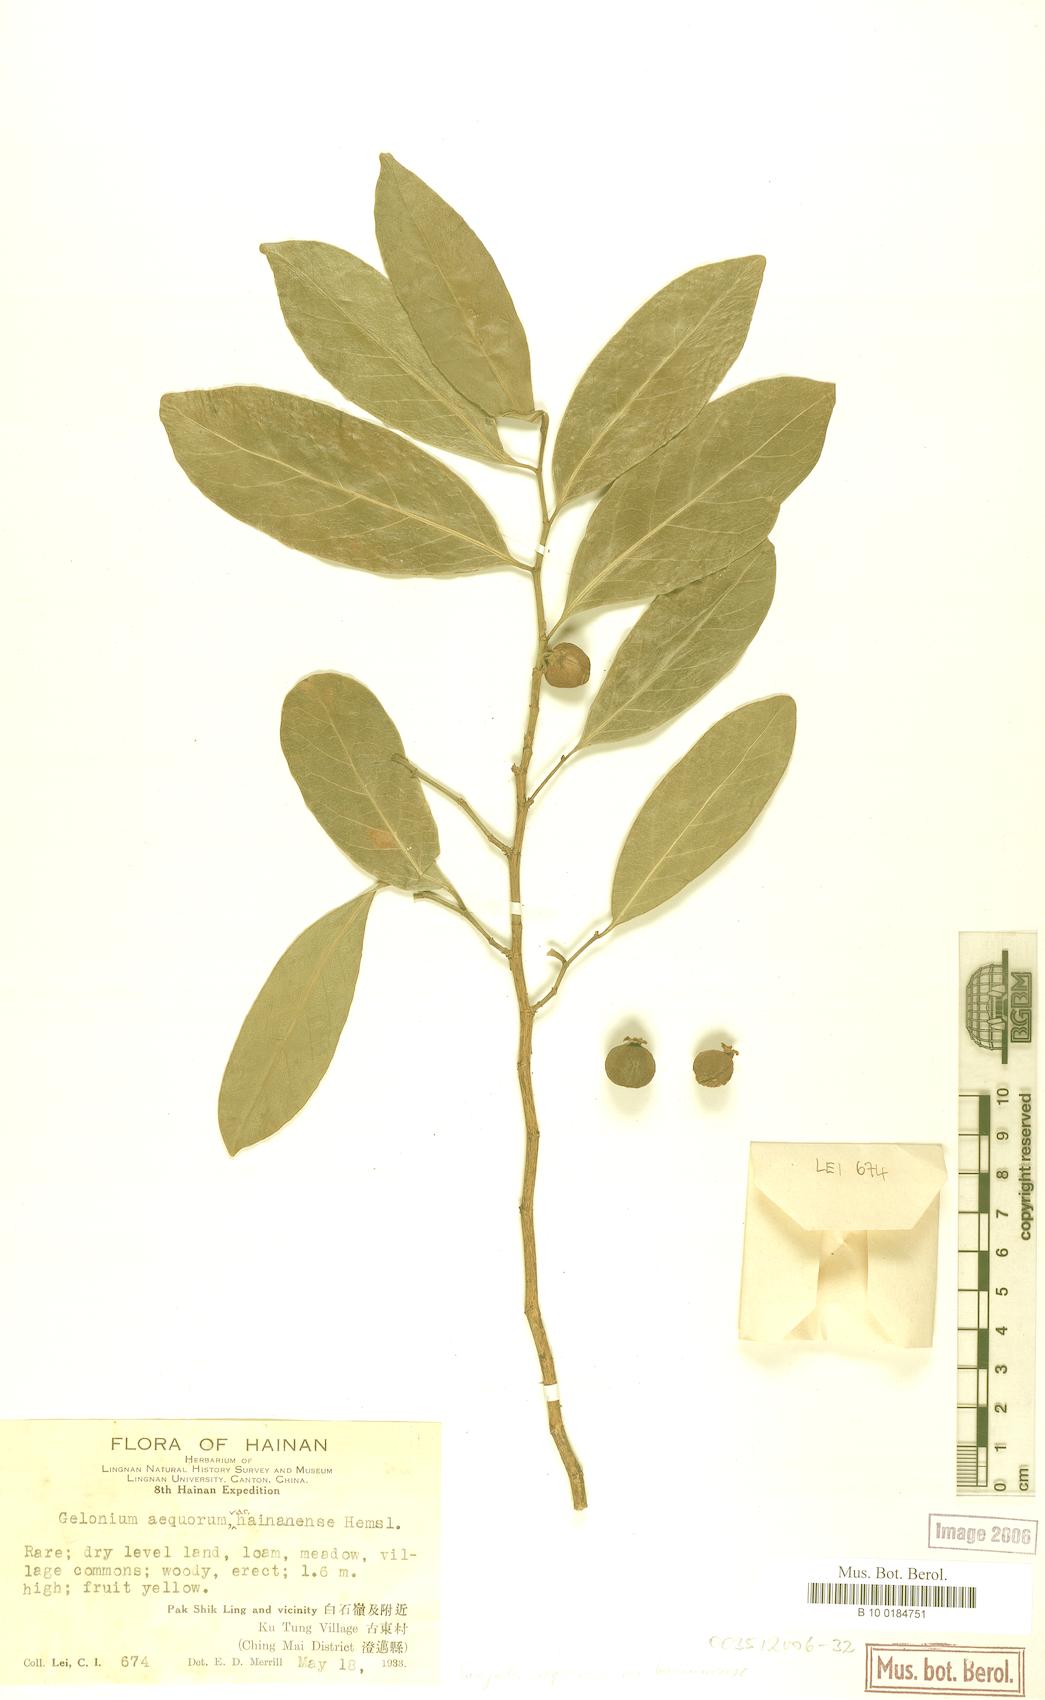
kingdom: Plantae
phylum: Tracheophyta
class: Magnoliopsida
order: Malpighiales
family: Euphorbiaceae
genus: Suregada
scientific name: Suregada multiflora
